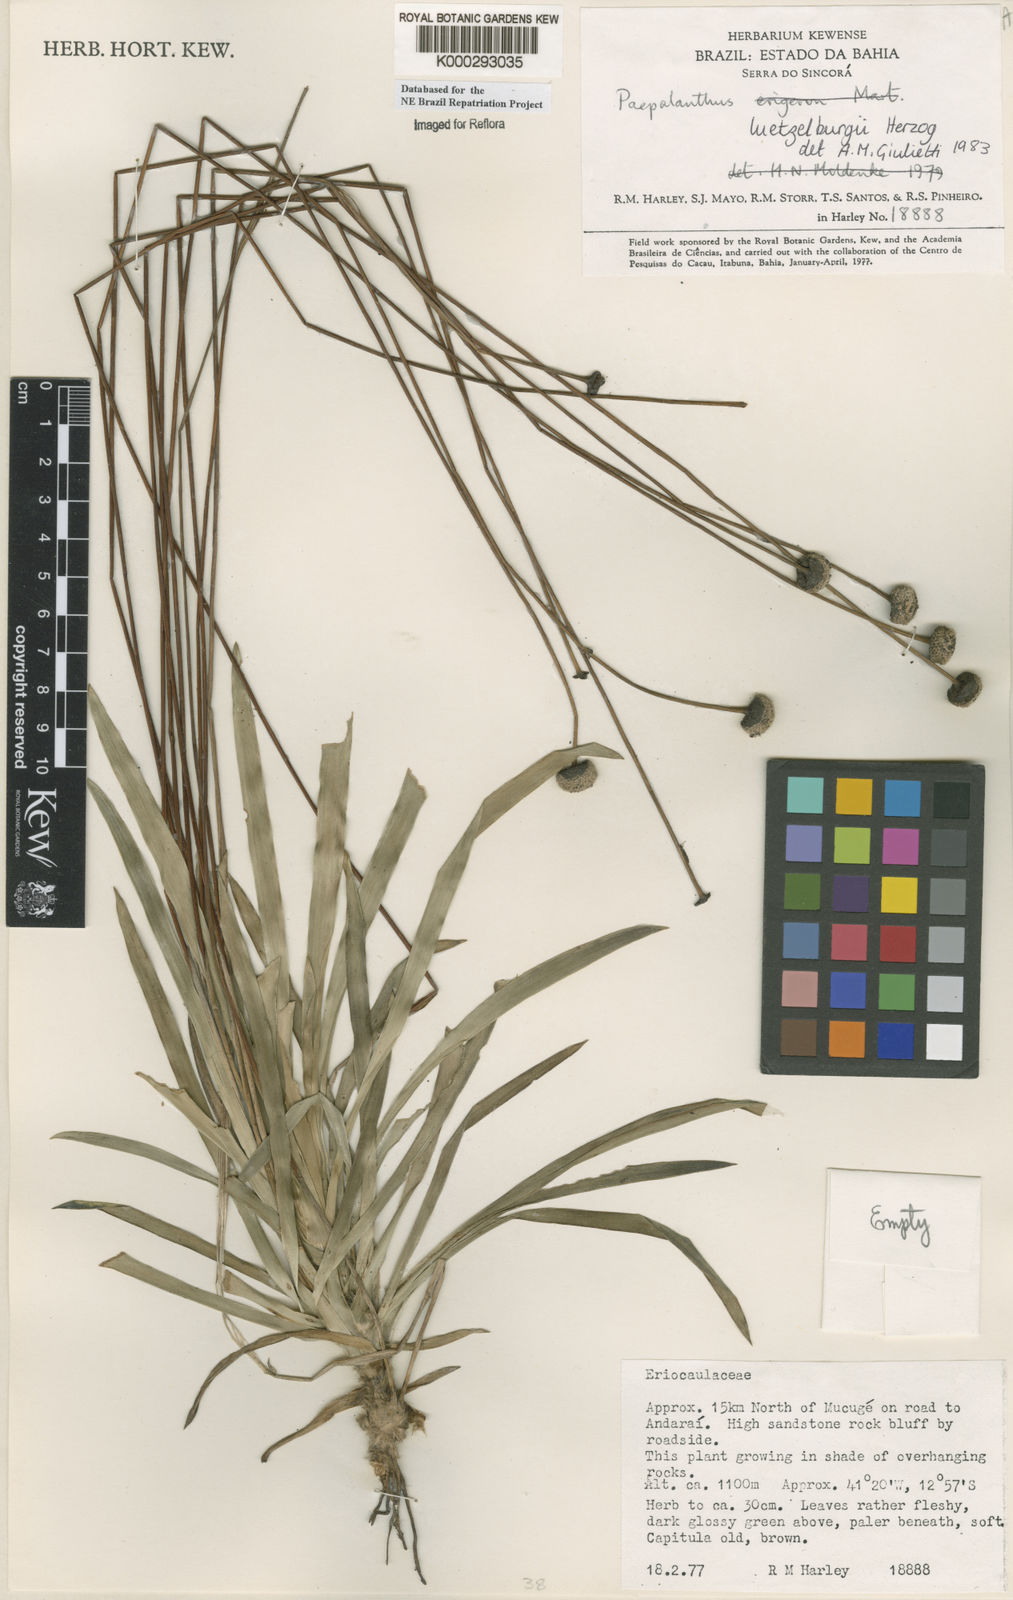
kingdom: Plantae
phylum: Tracheophyta
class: Liliopsida
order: Poales
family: Eriocaulaceae
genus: Paepalanthus
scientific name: Paepalanthus luetzelburgii
